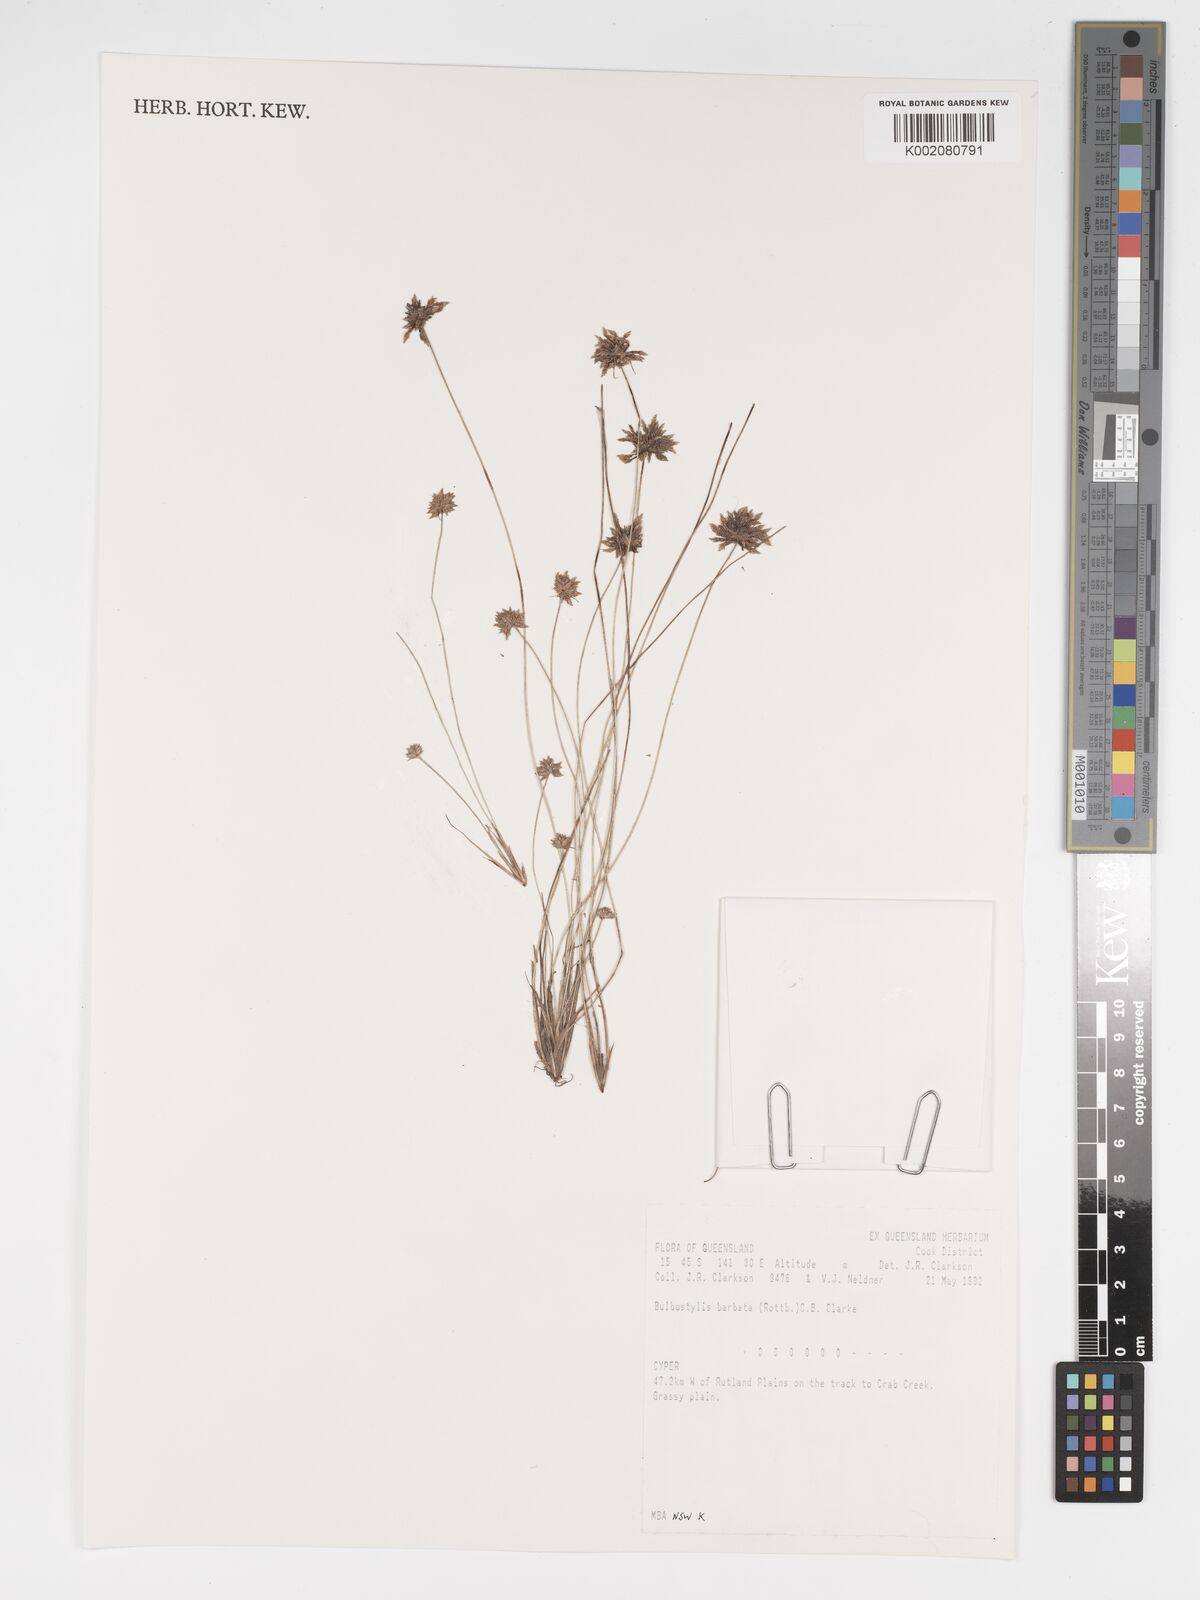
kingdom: Plantae
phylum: Tracheophyta
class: Liliopsida
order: Poales
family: Cyperaceae
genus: Bulbostylis
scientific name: Bulbostylis barbata
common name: Watergrass
